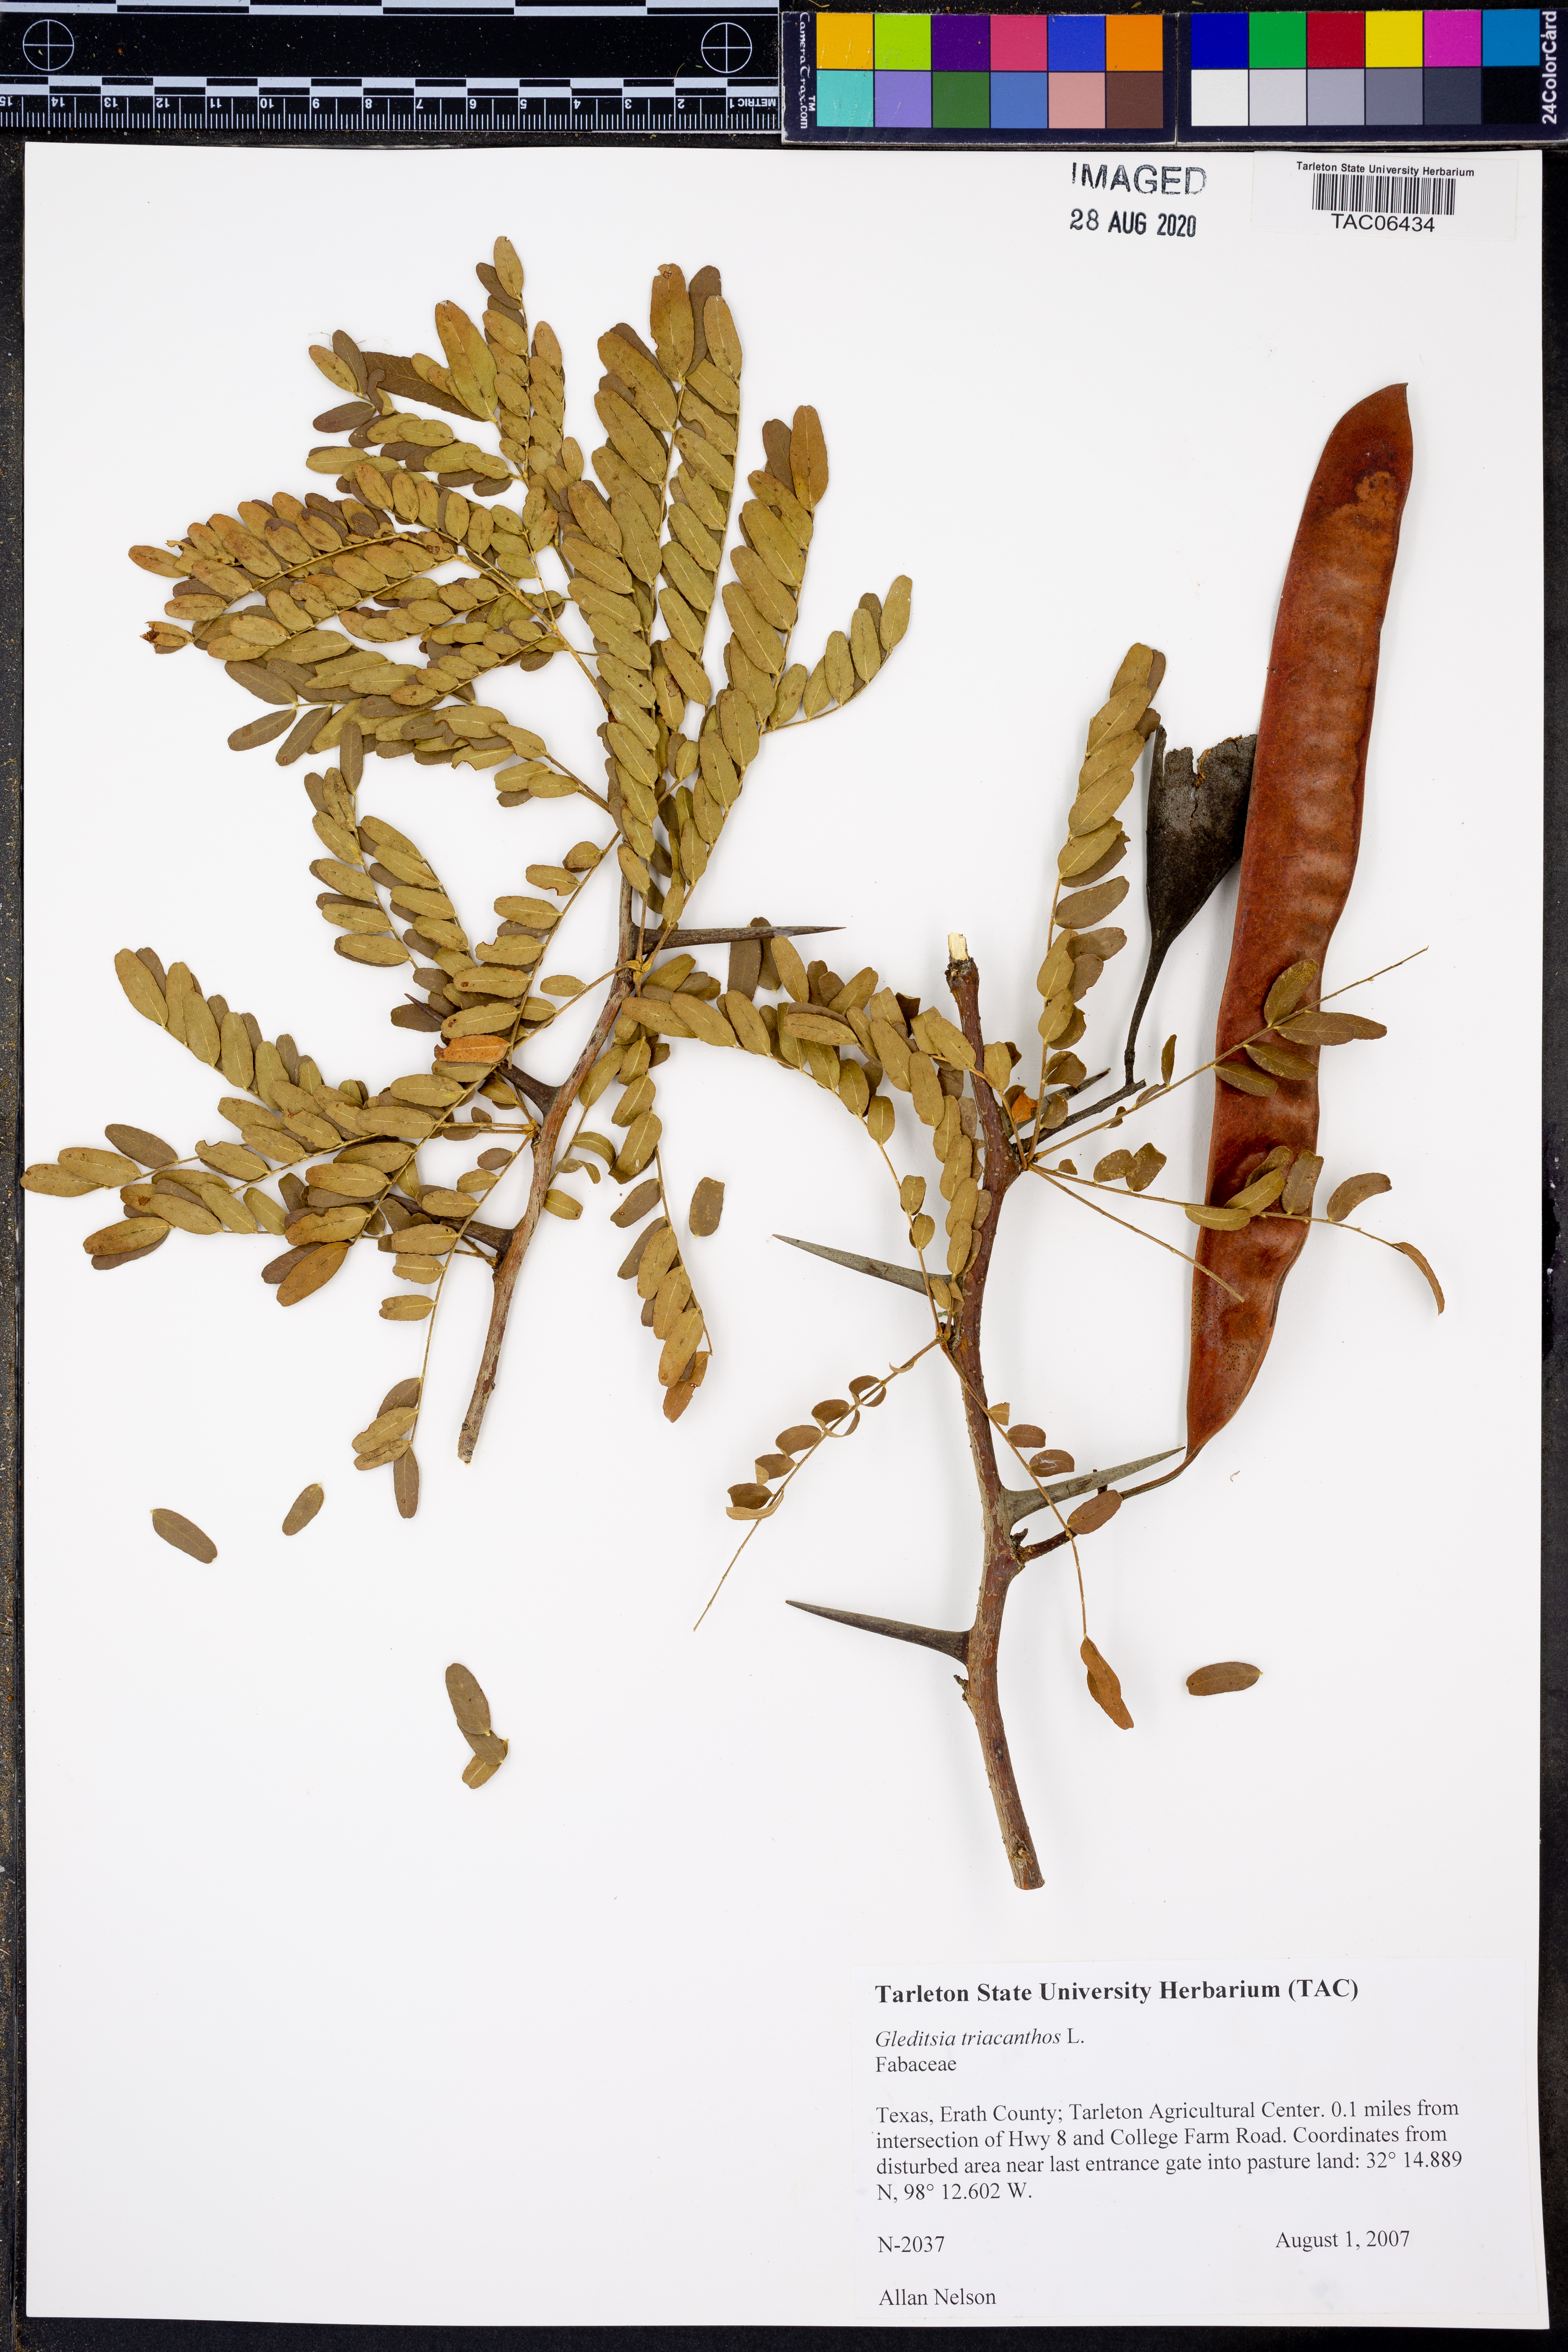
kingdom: Plantae
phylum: Tracheophyta
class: Magnoliopsida
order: Fabales
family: Fabaceae
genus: Gleditsia
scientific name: Gleditsia triacanthos
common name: Common honeylocust
